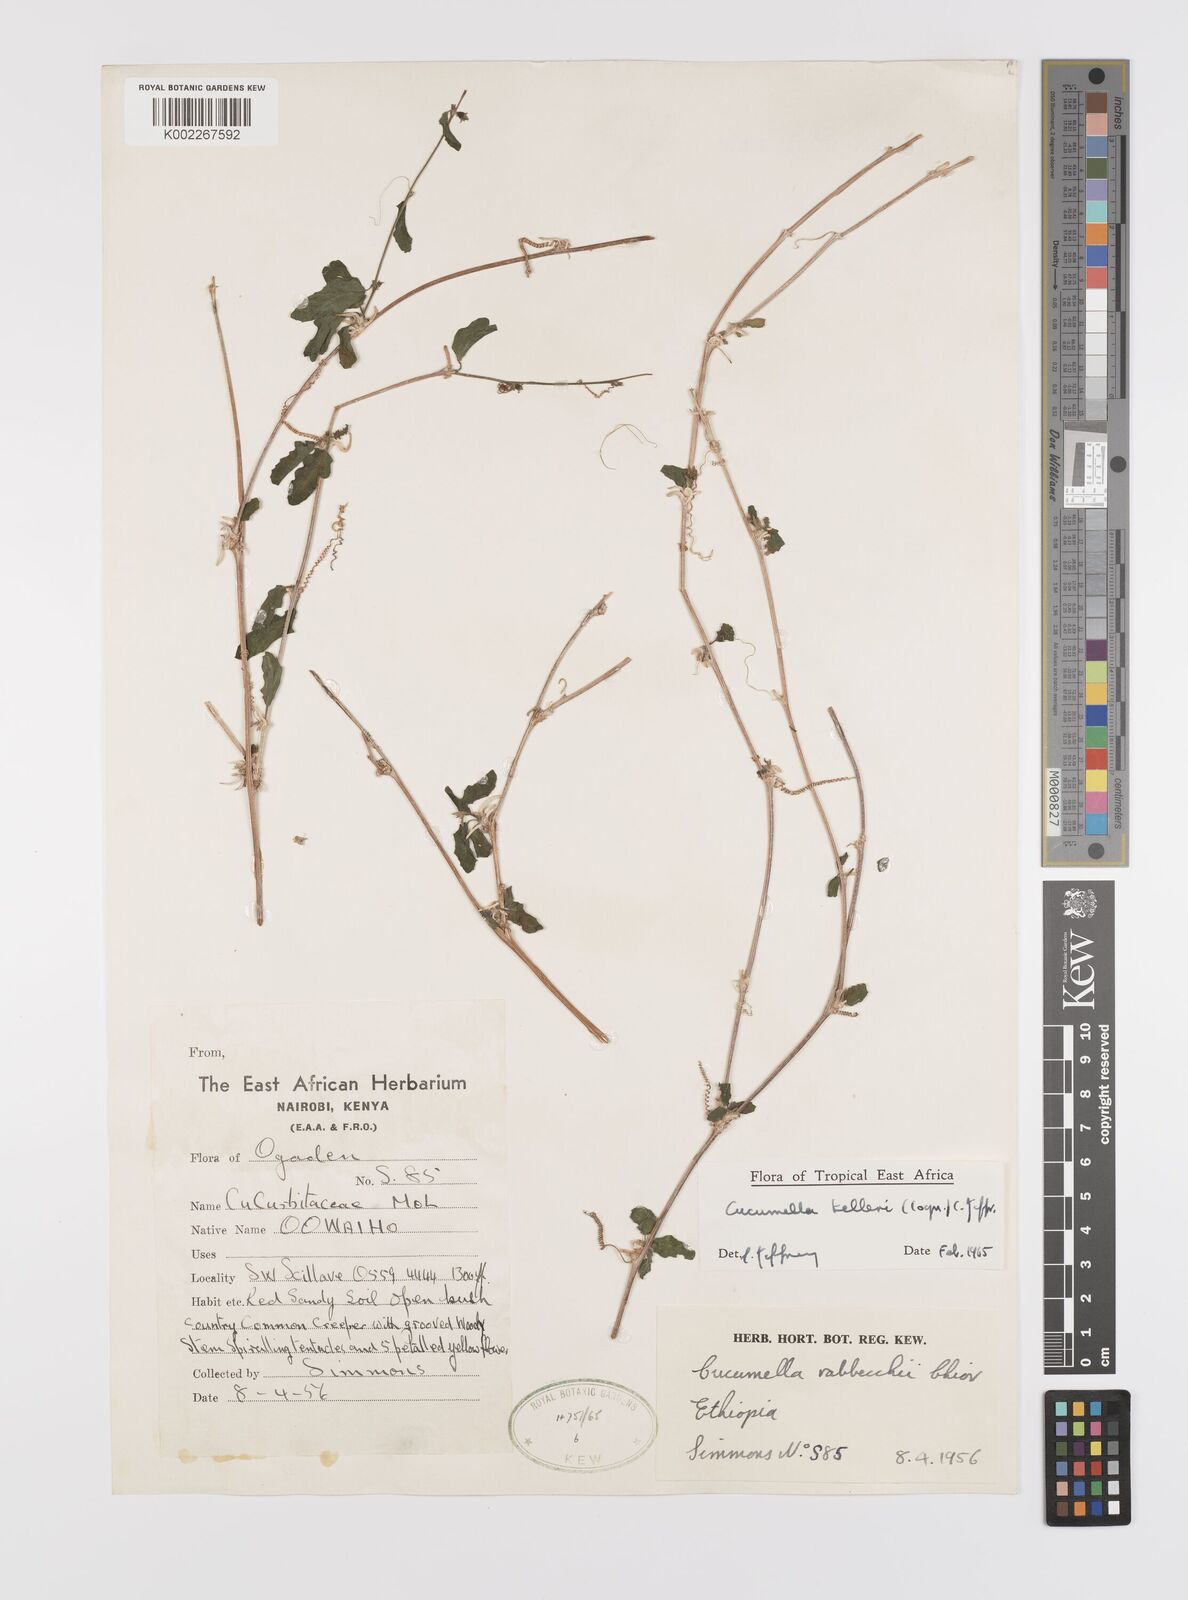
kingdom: Plantae
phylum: Tracheophyta
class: Magnoliopsida
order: Cucurbitales
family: Cucurbitaceae
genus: Cucumis
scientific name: Cucumis kelleri
